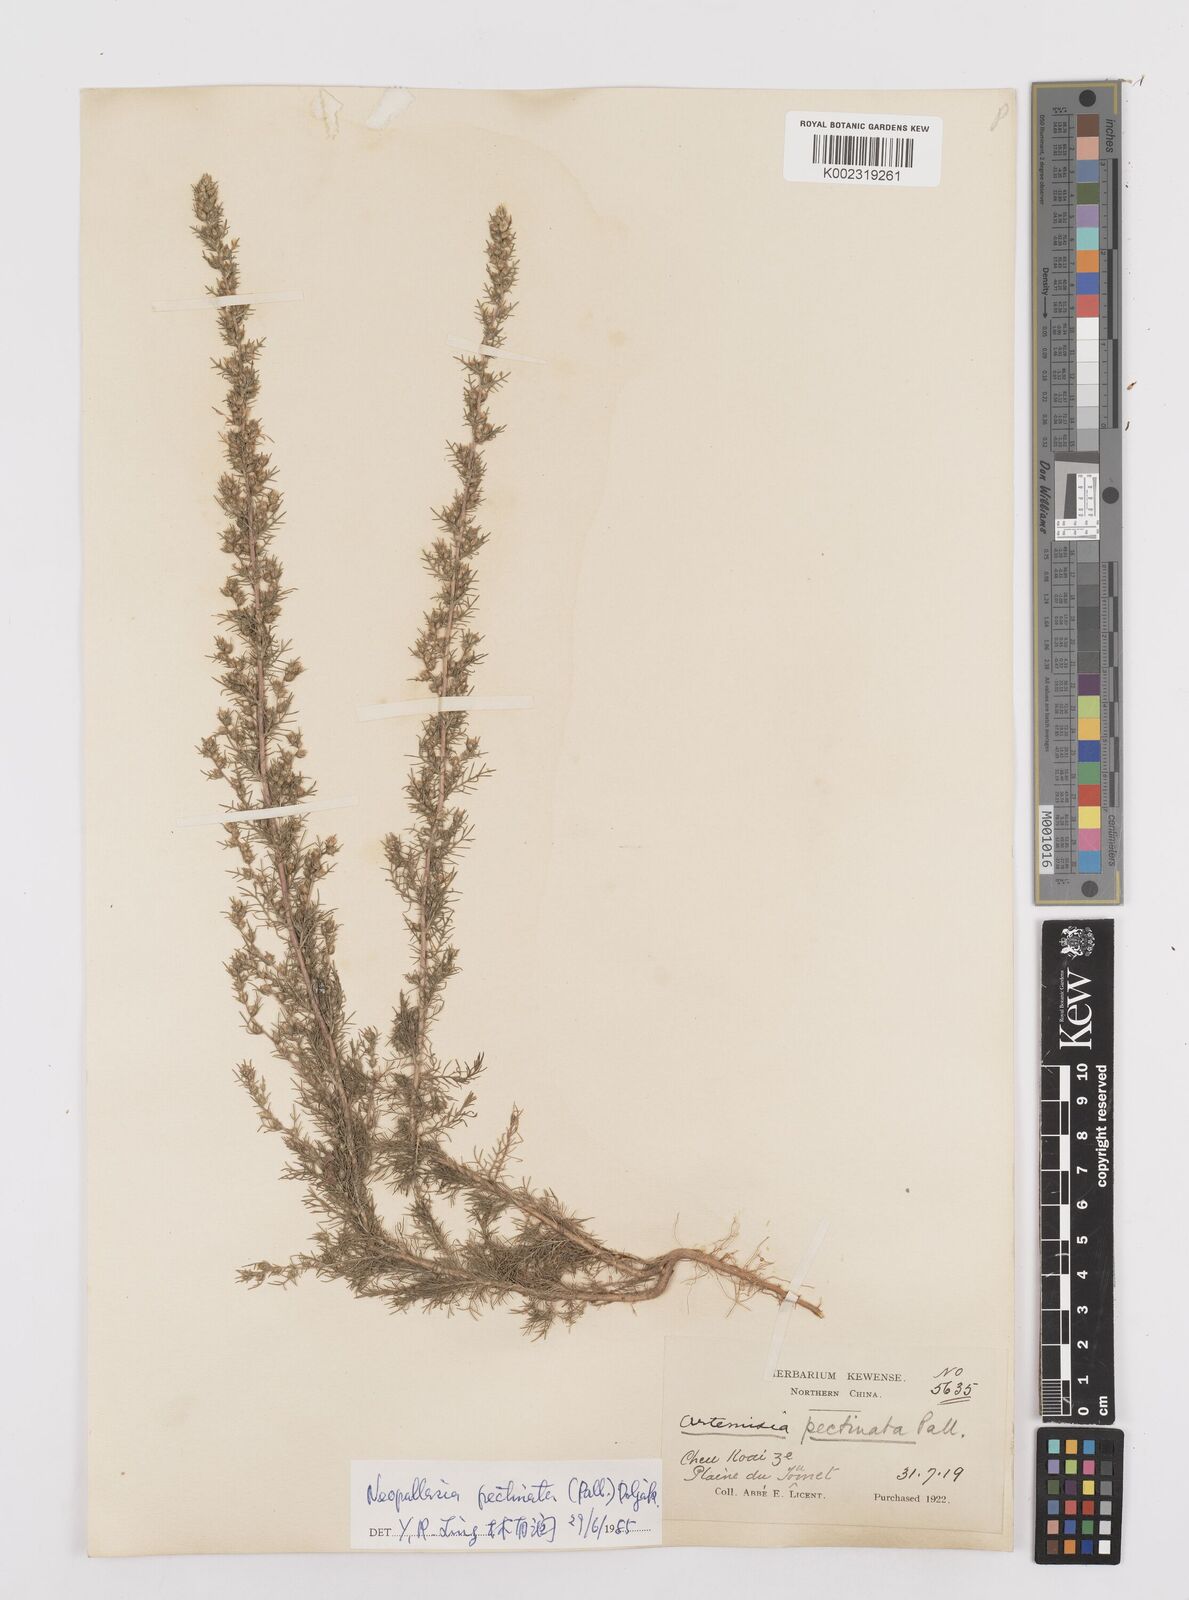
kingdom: Plantae
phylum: Tracheophyta
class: Magnoliopsida
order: Asterales
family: Asteraceae
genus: Neopallasia
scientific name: Neopallasia pectinata
